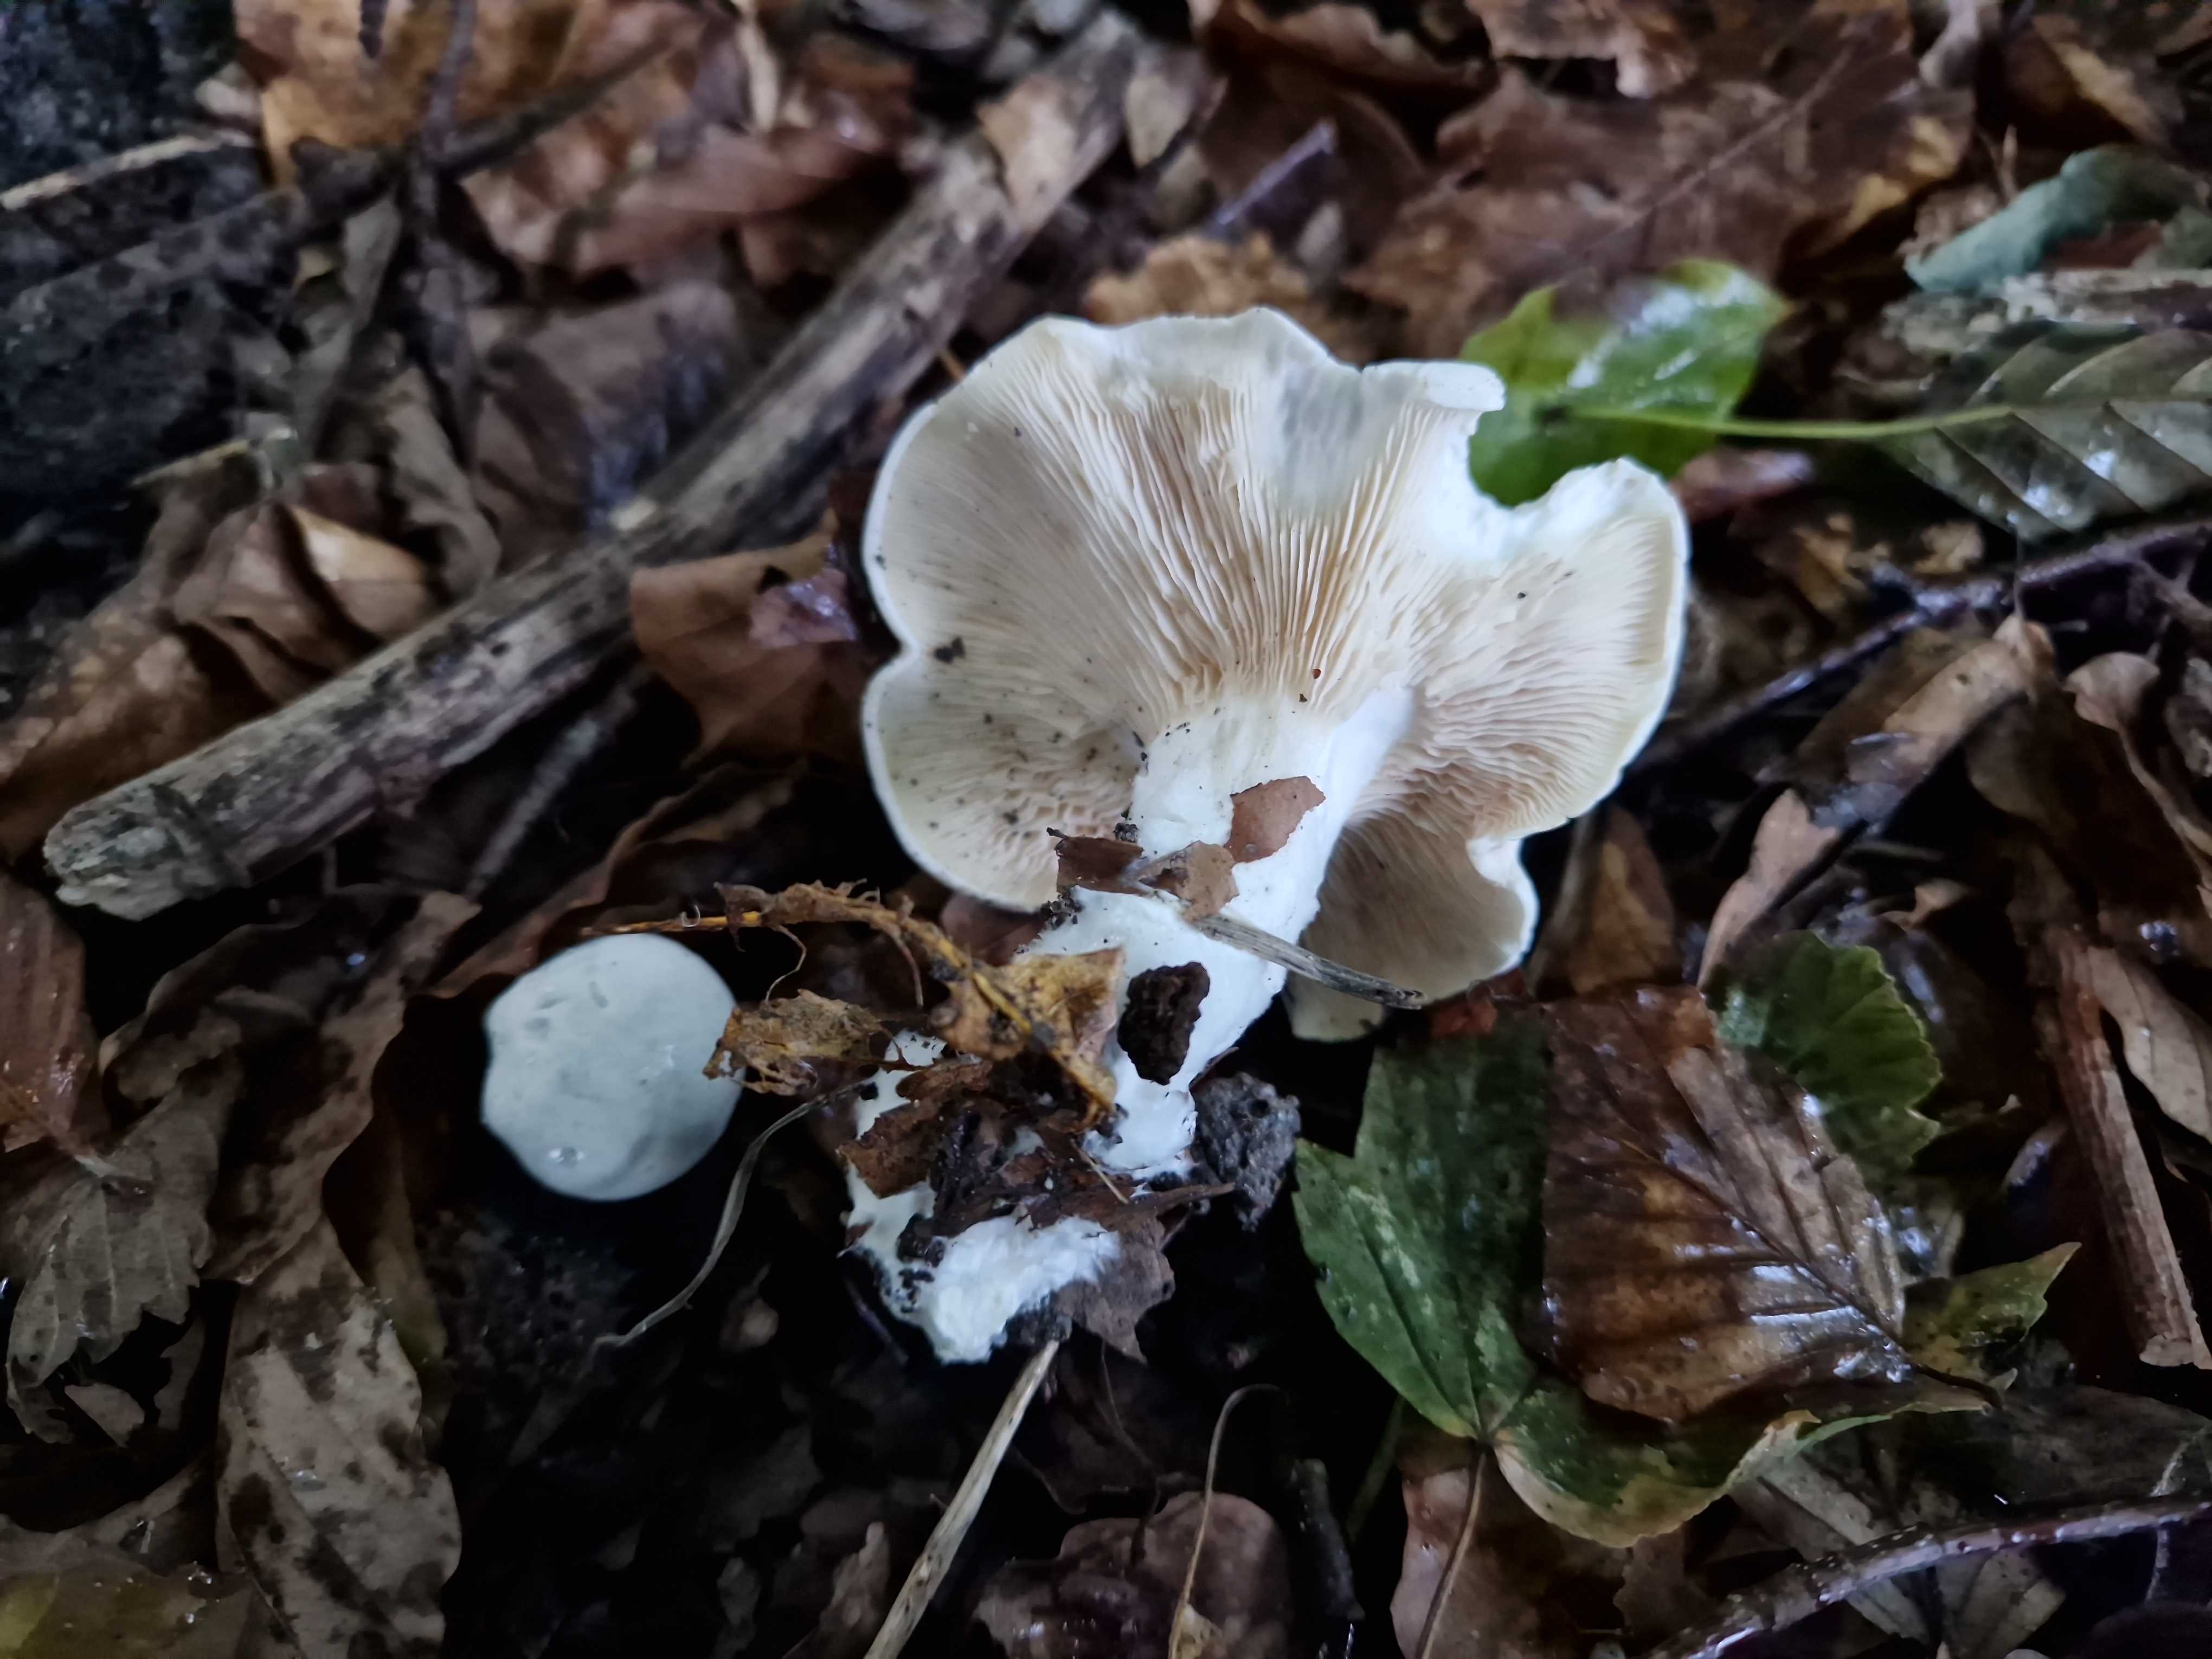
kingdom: Fungi
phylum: Basidiomycota
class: Agaricomycetes
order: Agaricales
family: Entolomataceae
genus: Clitopilus
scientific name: Clitopilus prunulus
